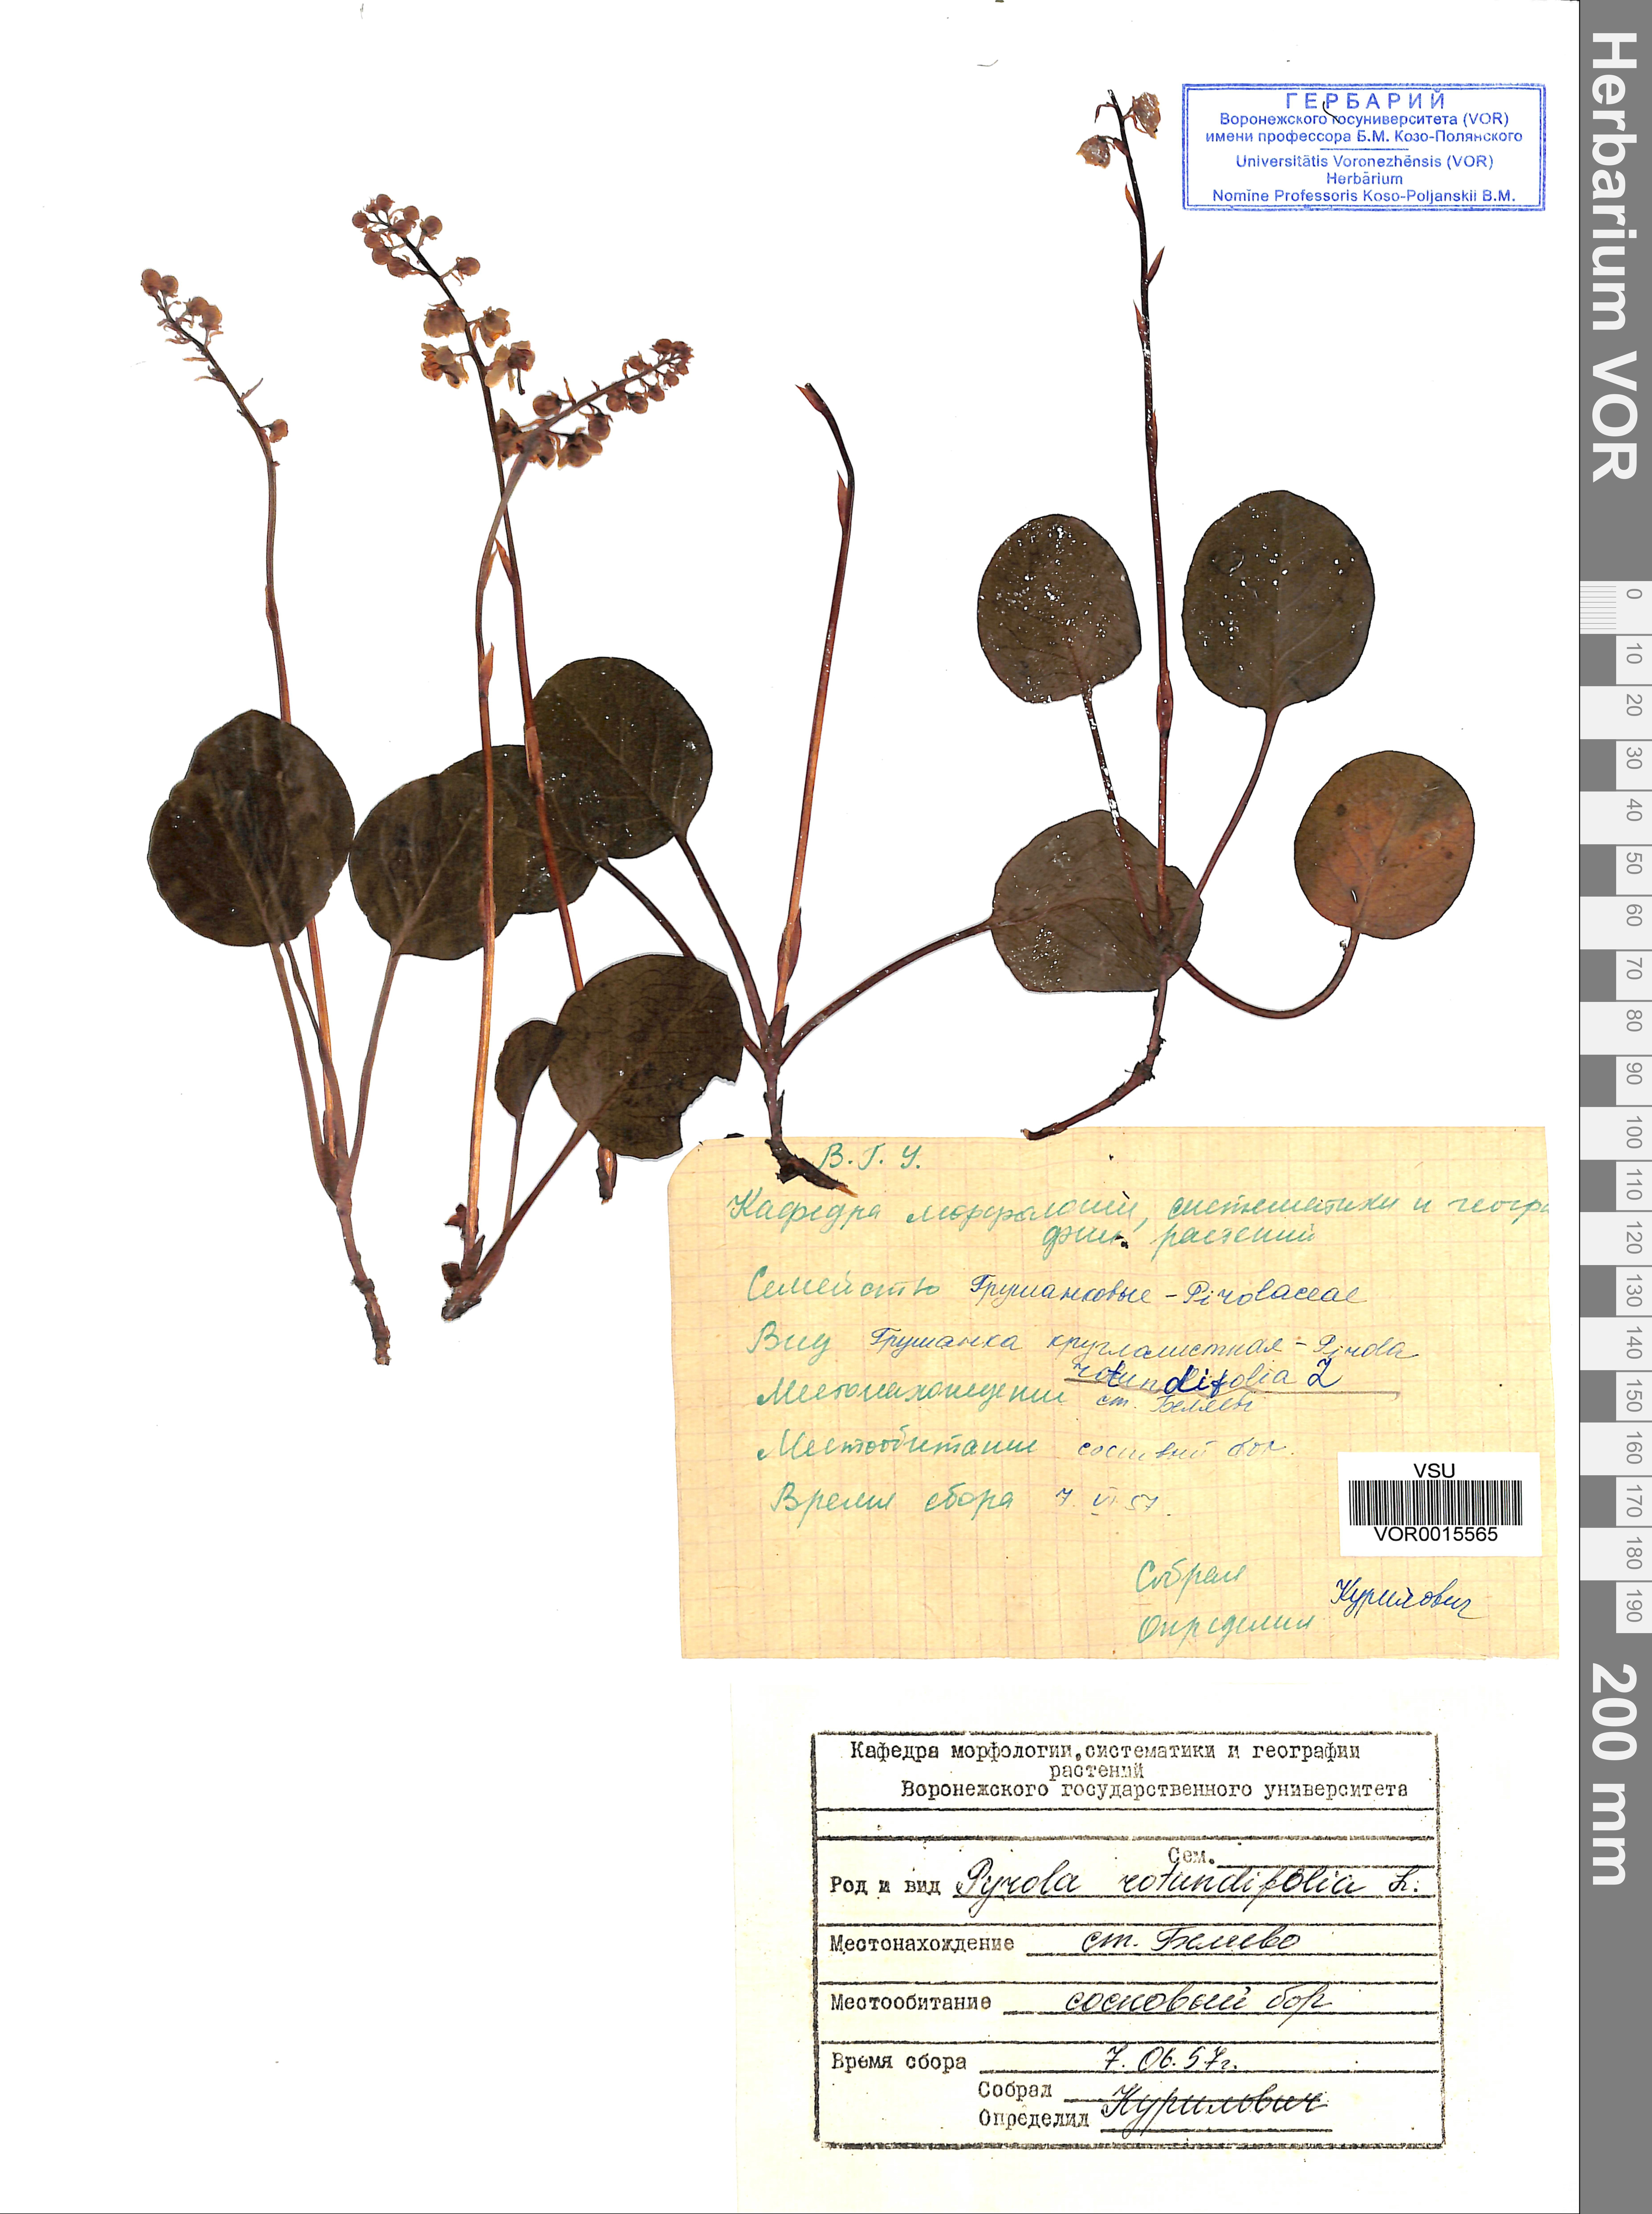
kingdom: Plantae
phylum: Tracheophyta
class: Magnoliopsida
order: Ericales
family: Ericaceae
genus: Pyrola
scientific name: Pyrola rotundifolia
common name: Round-leaved wintergreen
